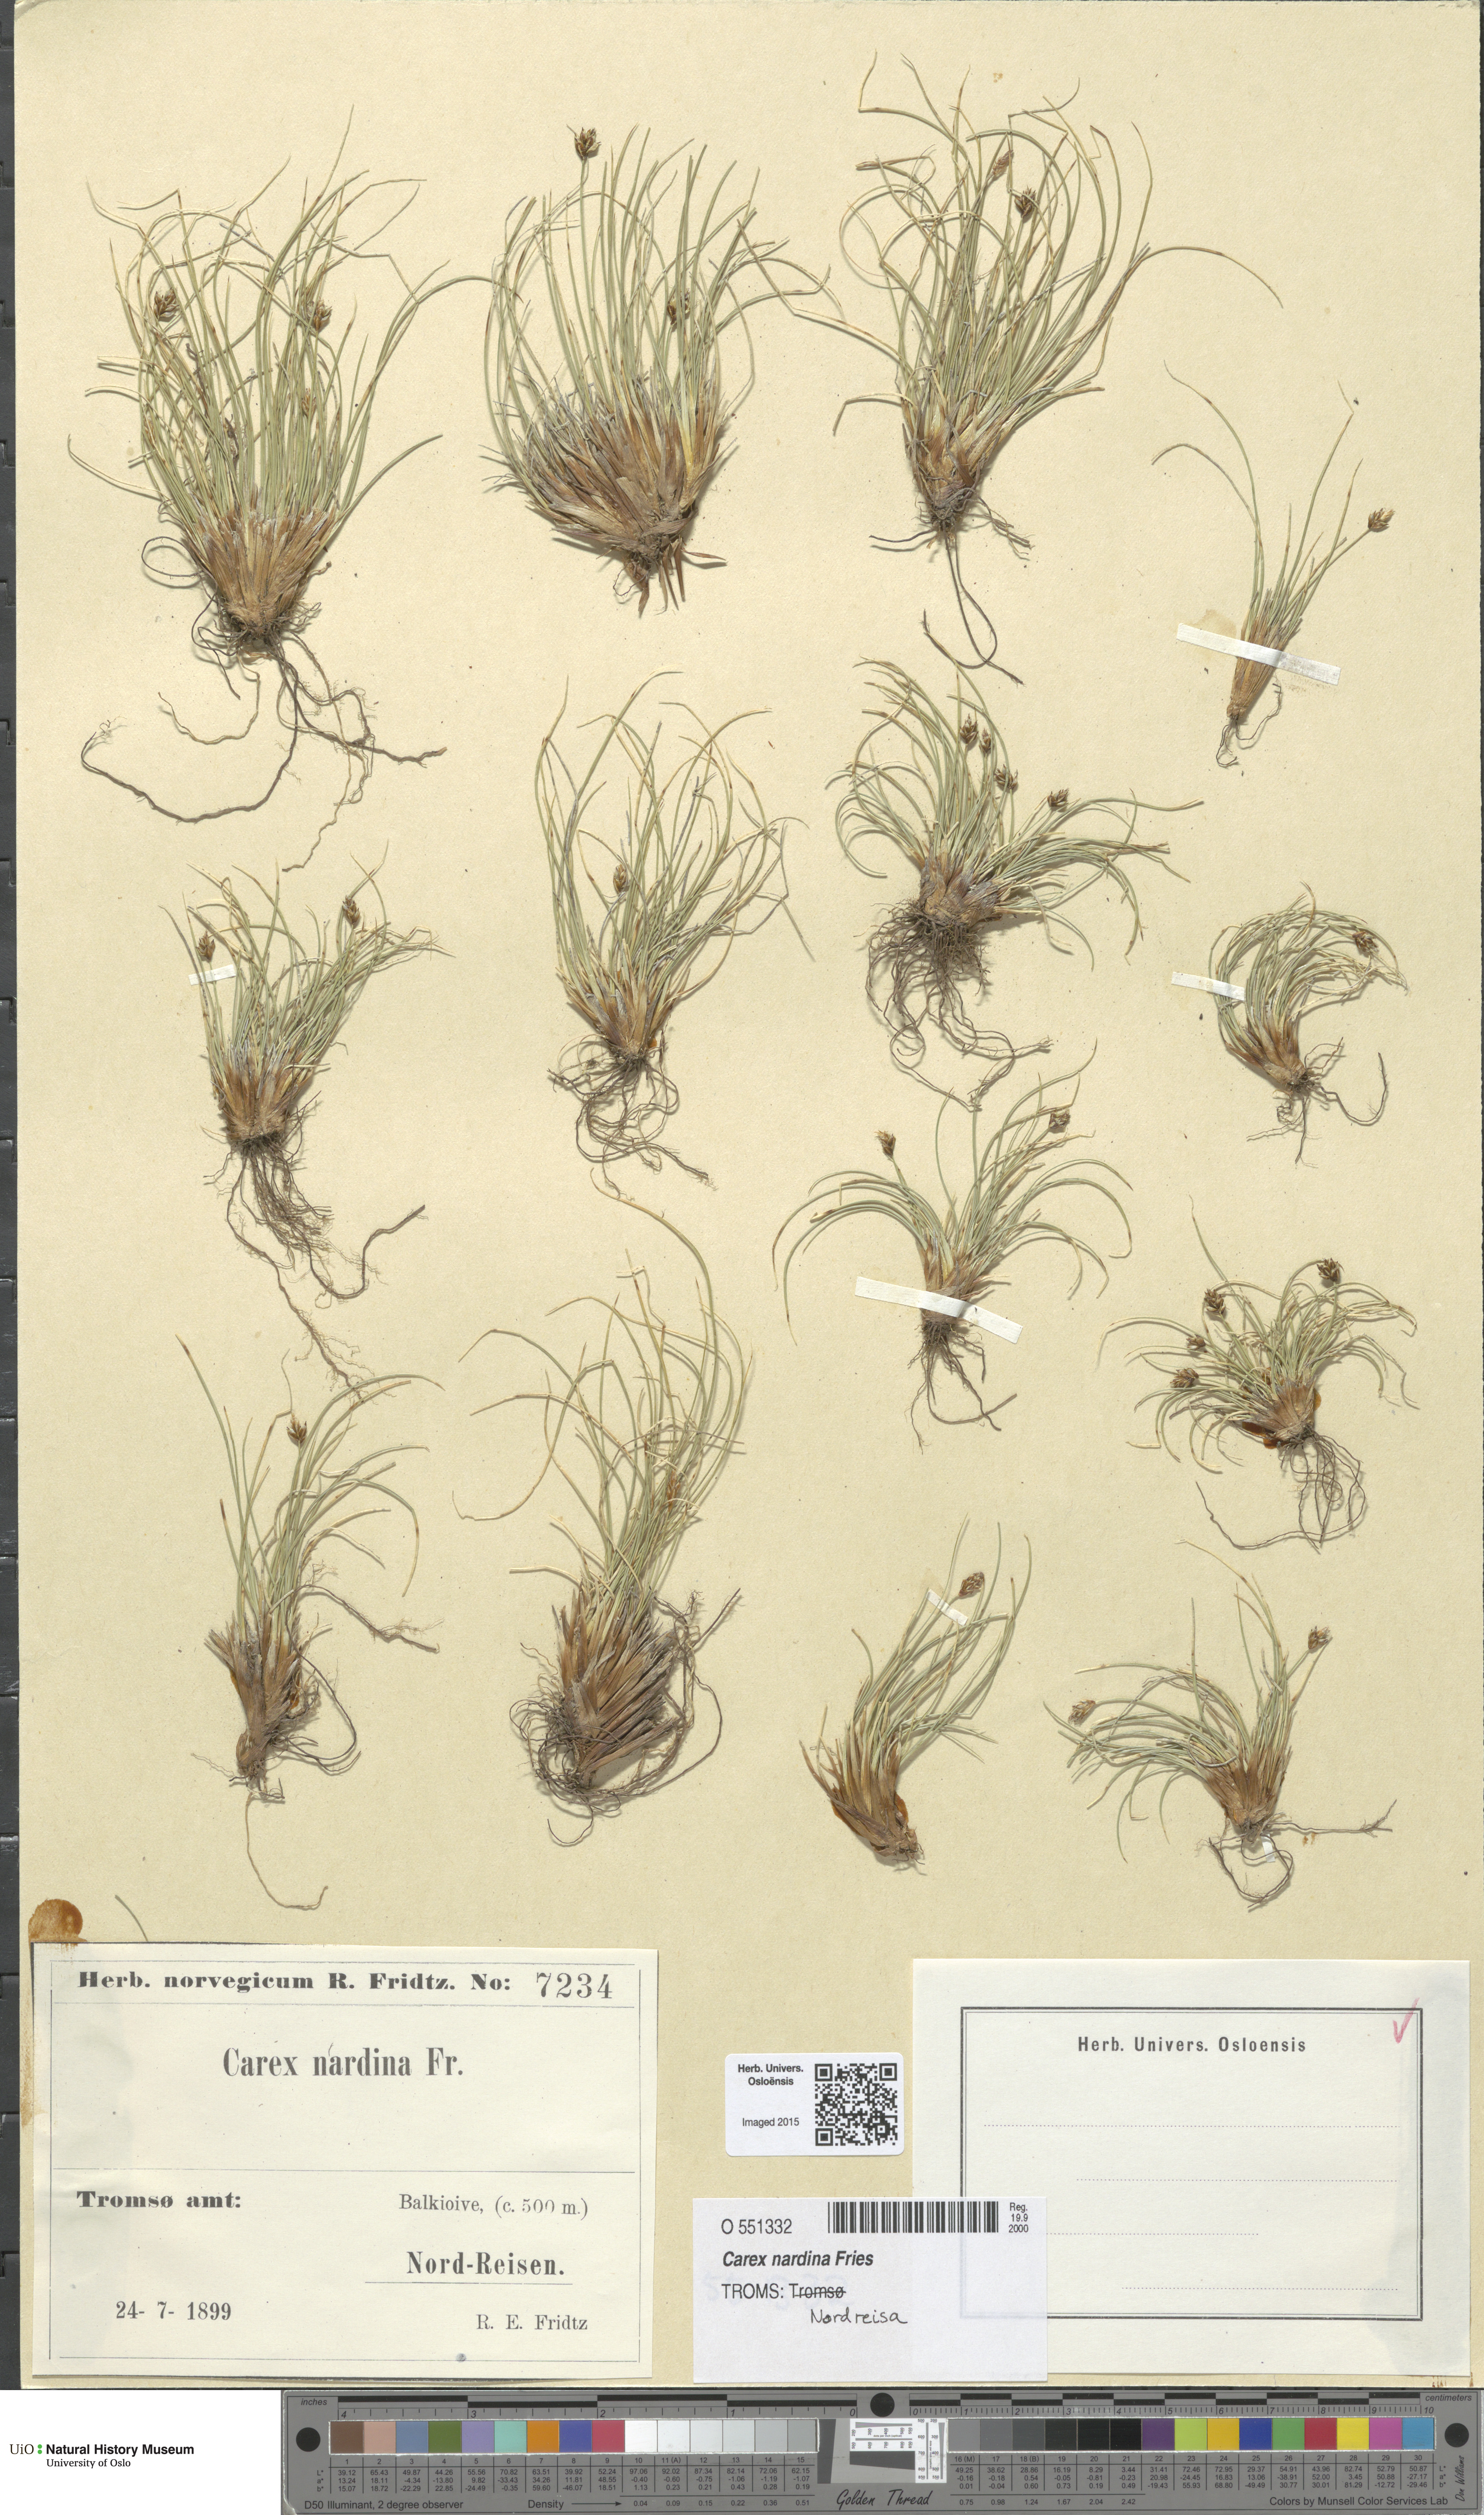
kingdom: Plantae
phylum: Tracheophyta
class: Liliopsida
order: Poales
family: Cyperaceae
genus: Carex
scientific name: Carex nardina
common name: Nard sedge
